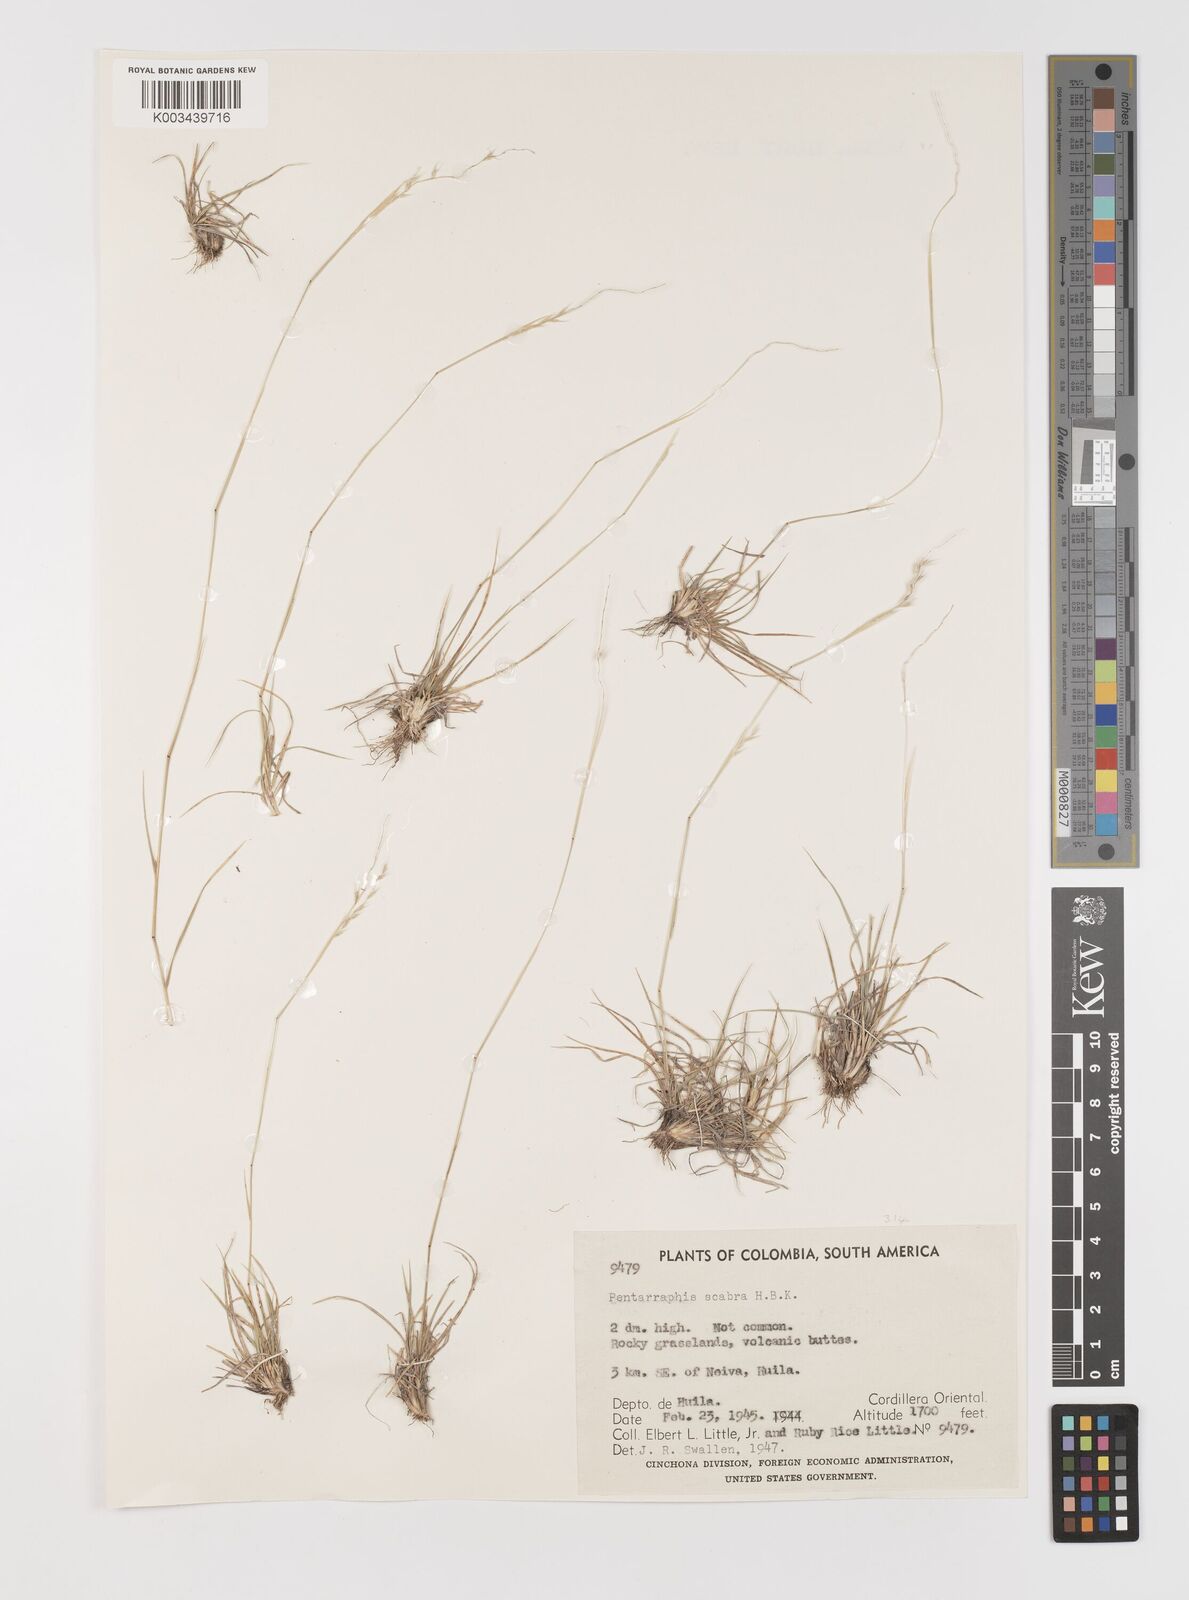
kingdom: Plantae
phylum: Tracheophyta
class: Liliopsida
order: Poales
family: Poaceae
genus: Bouteloua
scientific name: Bouteloua scabra
